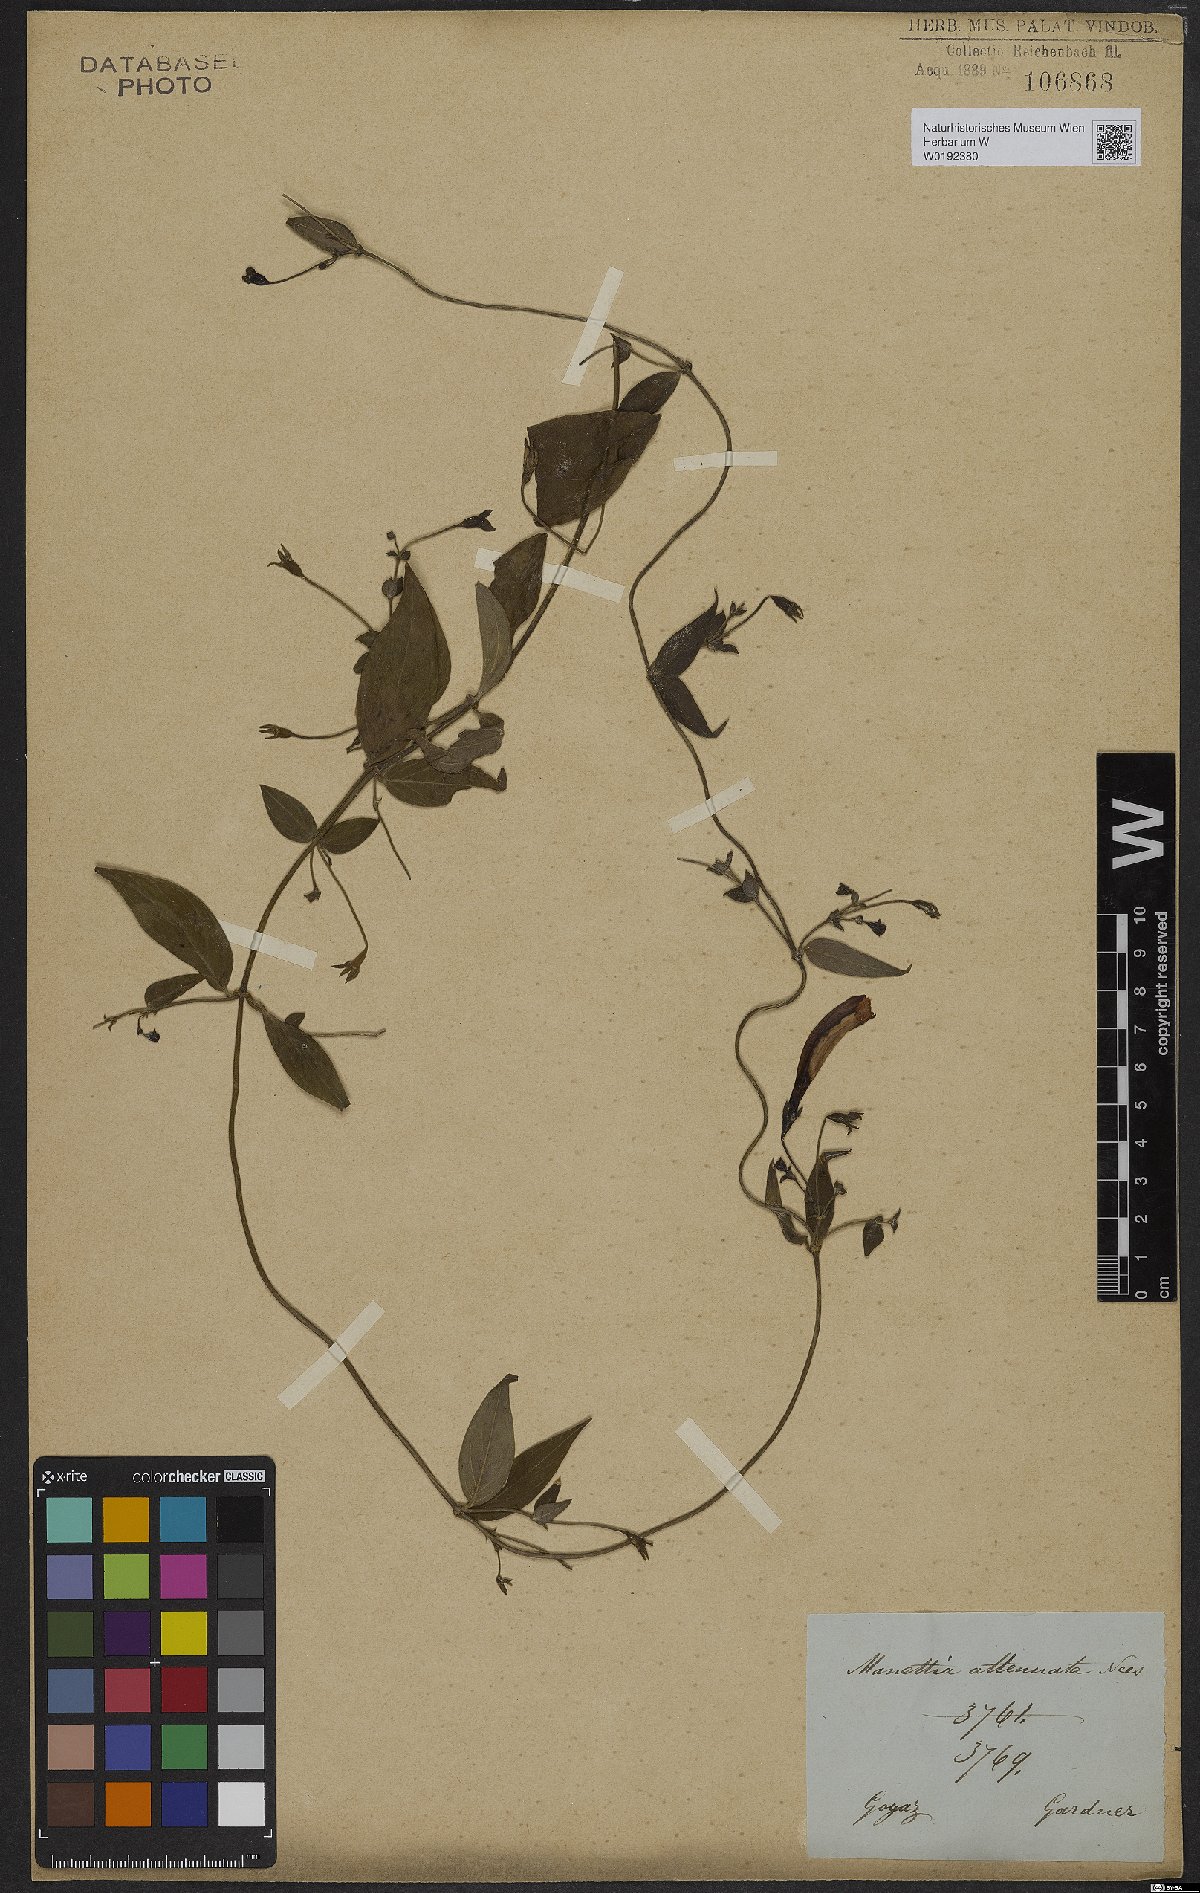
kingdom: Plantae
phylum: Tracheophyta
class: Magnoliopsida
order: Gentianales
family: Rubiaceae
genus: Manettia
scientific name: Manettia cordifolia
